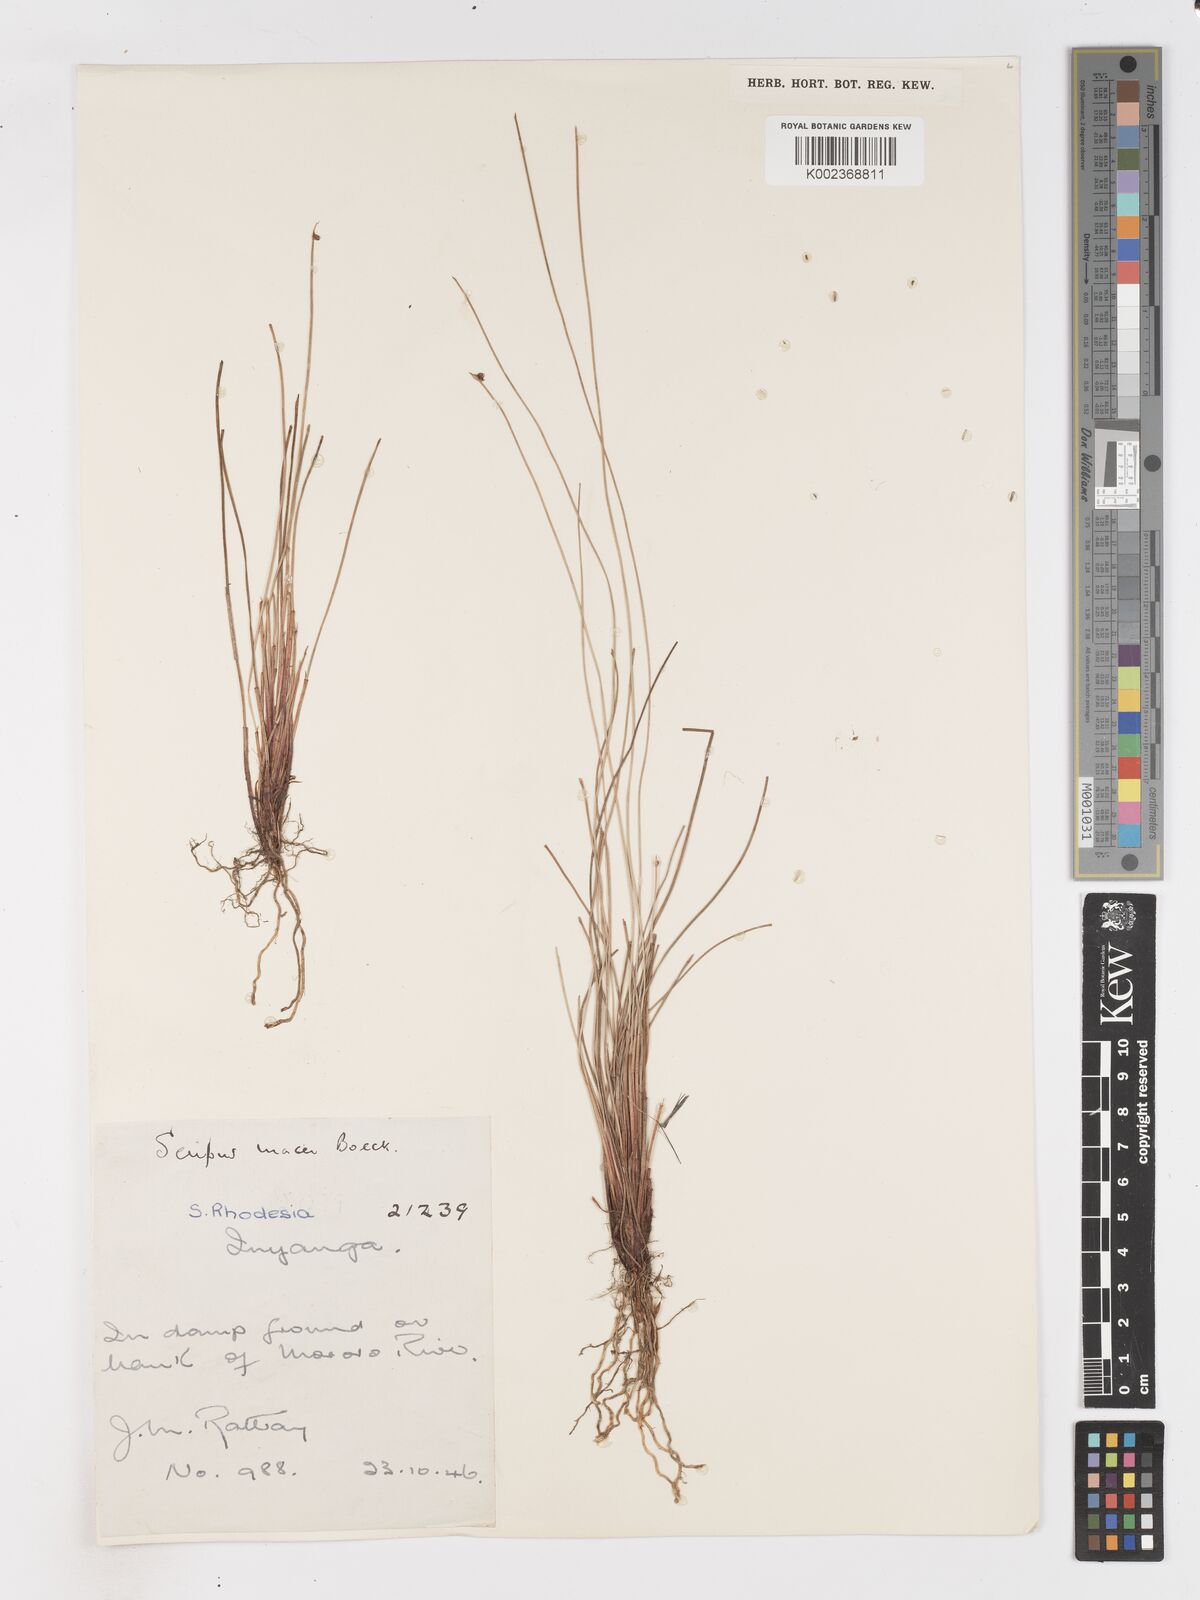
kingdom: Plantae
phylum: Tracheophyta
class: Liliopsida
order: Poales
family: Cyperaceae
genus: Isolepis
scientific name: Isolepis costata
